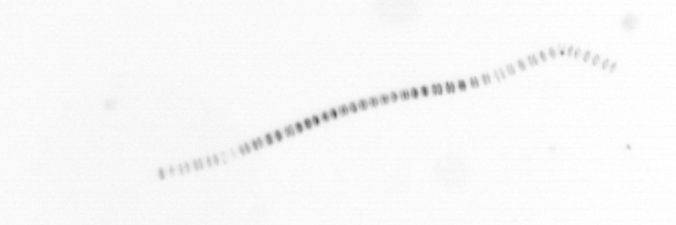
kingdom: Chromista
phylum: Ochrophyta
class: Bacillariophyceae
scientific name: Bacillariophyceae
